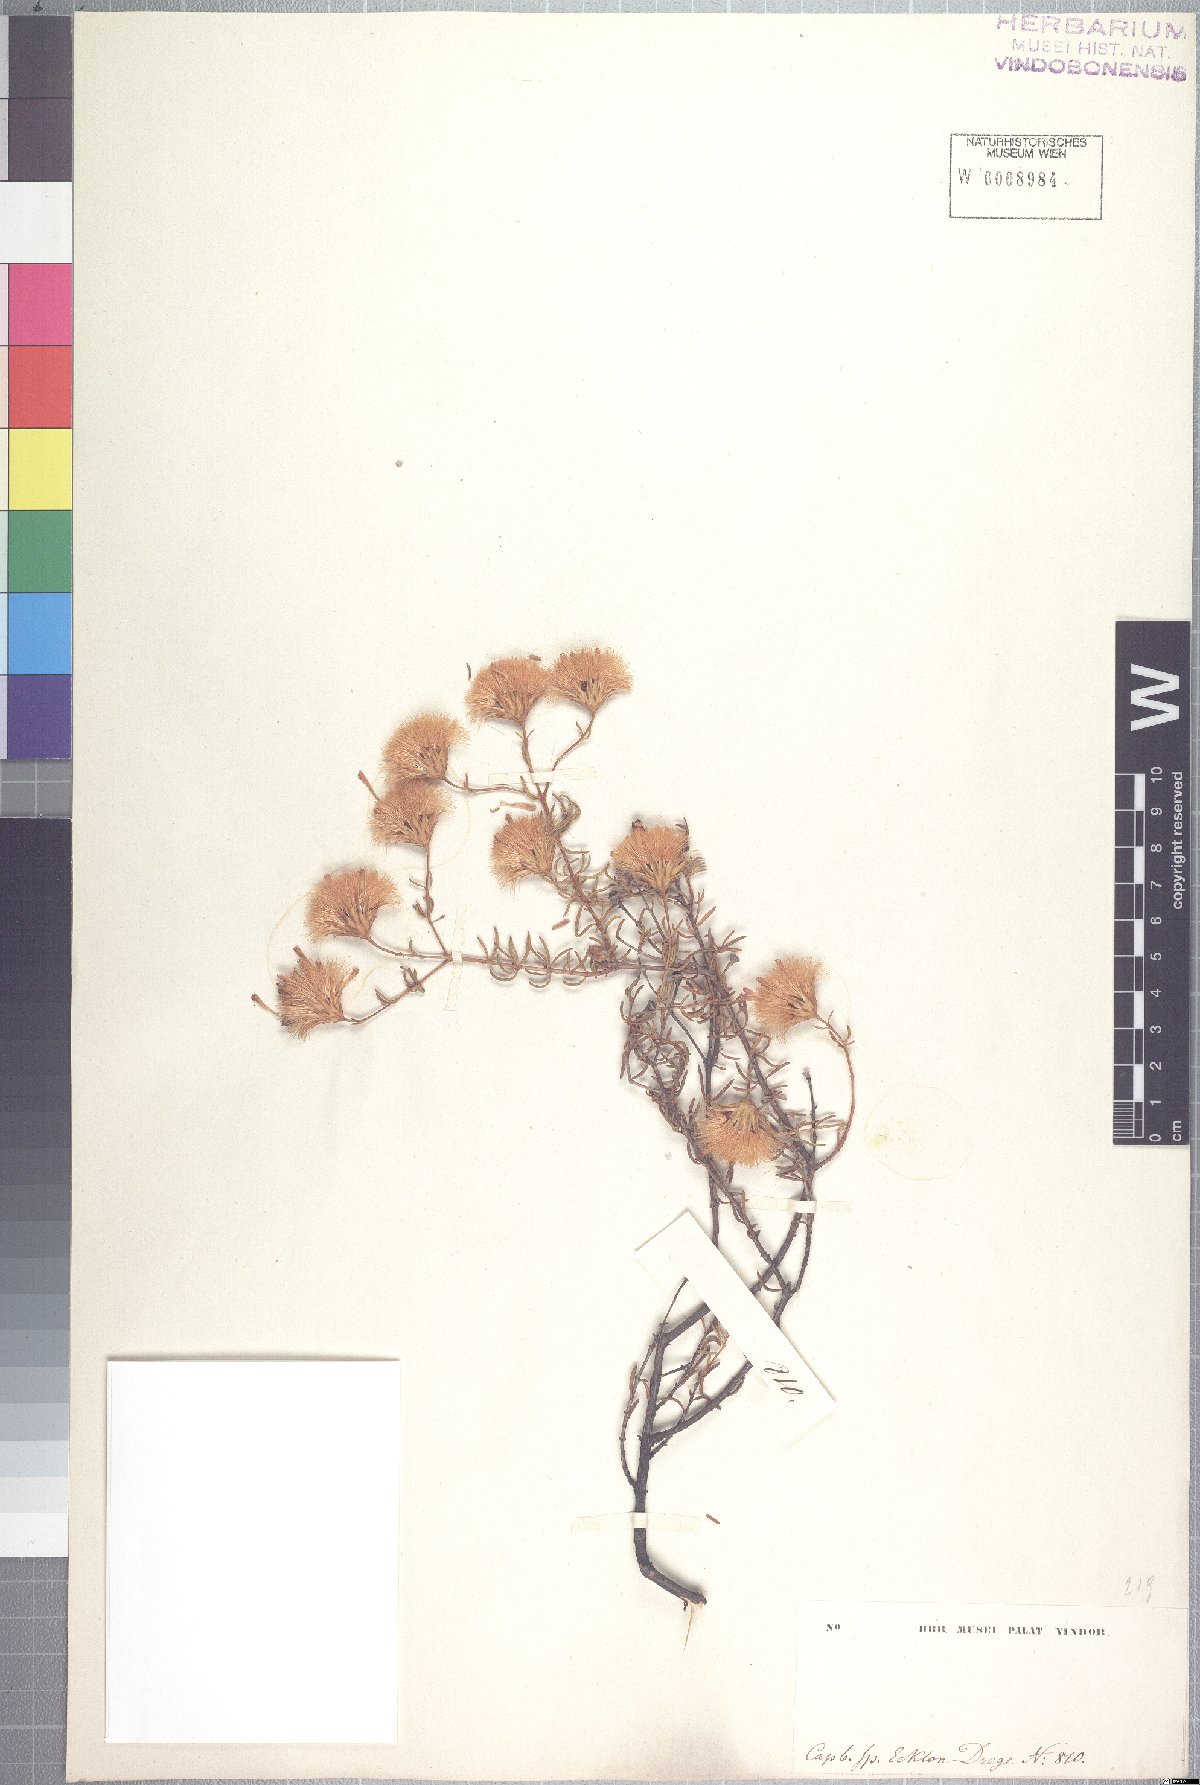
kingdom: Plantae
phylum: Tracheophyta
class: Magnoliopsida
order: Asterales
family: Asteraceae
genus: Pteronia
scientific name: Pteronia cederbergensis
